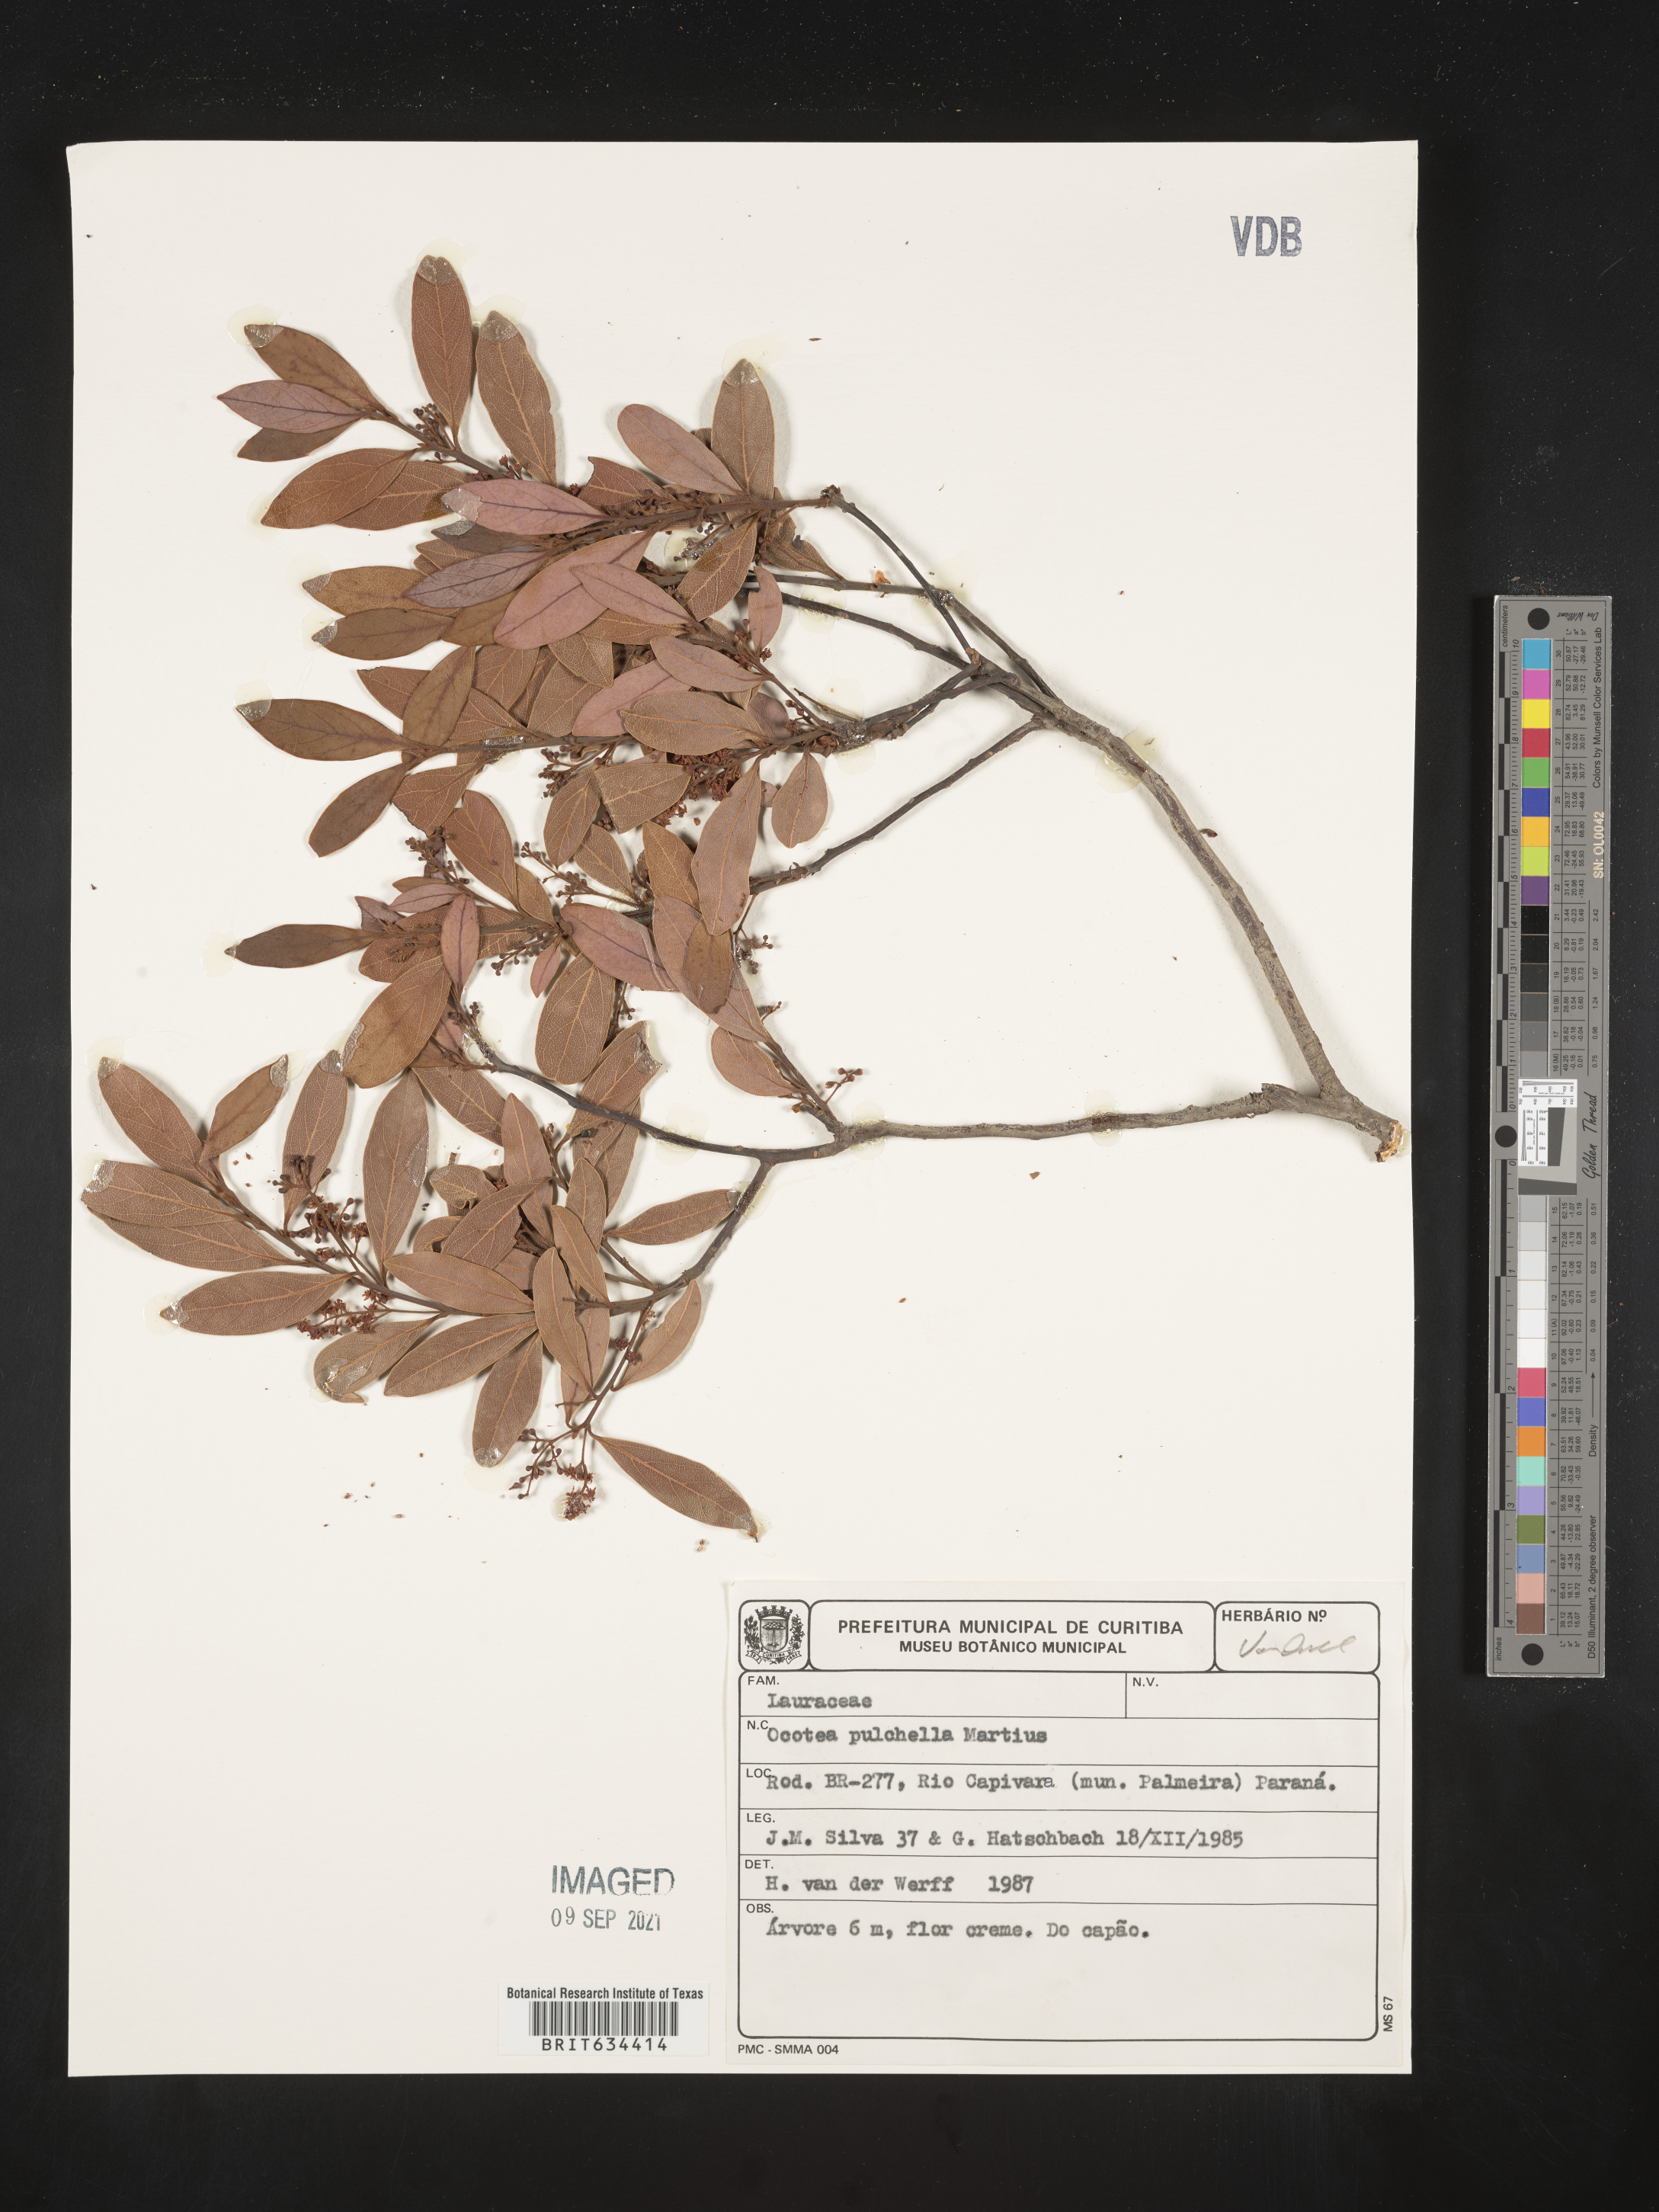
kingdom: Plantae
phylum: Tracheophyta
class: Magnoliopsida
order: Laurales
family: Lauraceae
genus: Ocotea
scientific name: Ocotea
